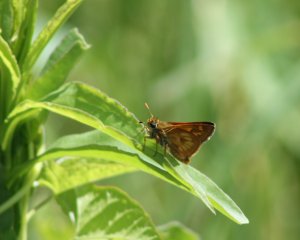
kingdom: Animalia
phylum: Arthropoda
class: Insecta
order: Lepidoptera
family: Hesperiidae
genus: Polites
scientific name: Polites
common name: Long Dash Skipper
